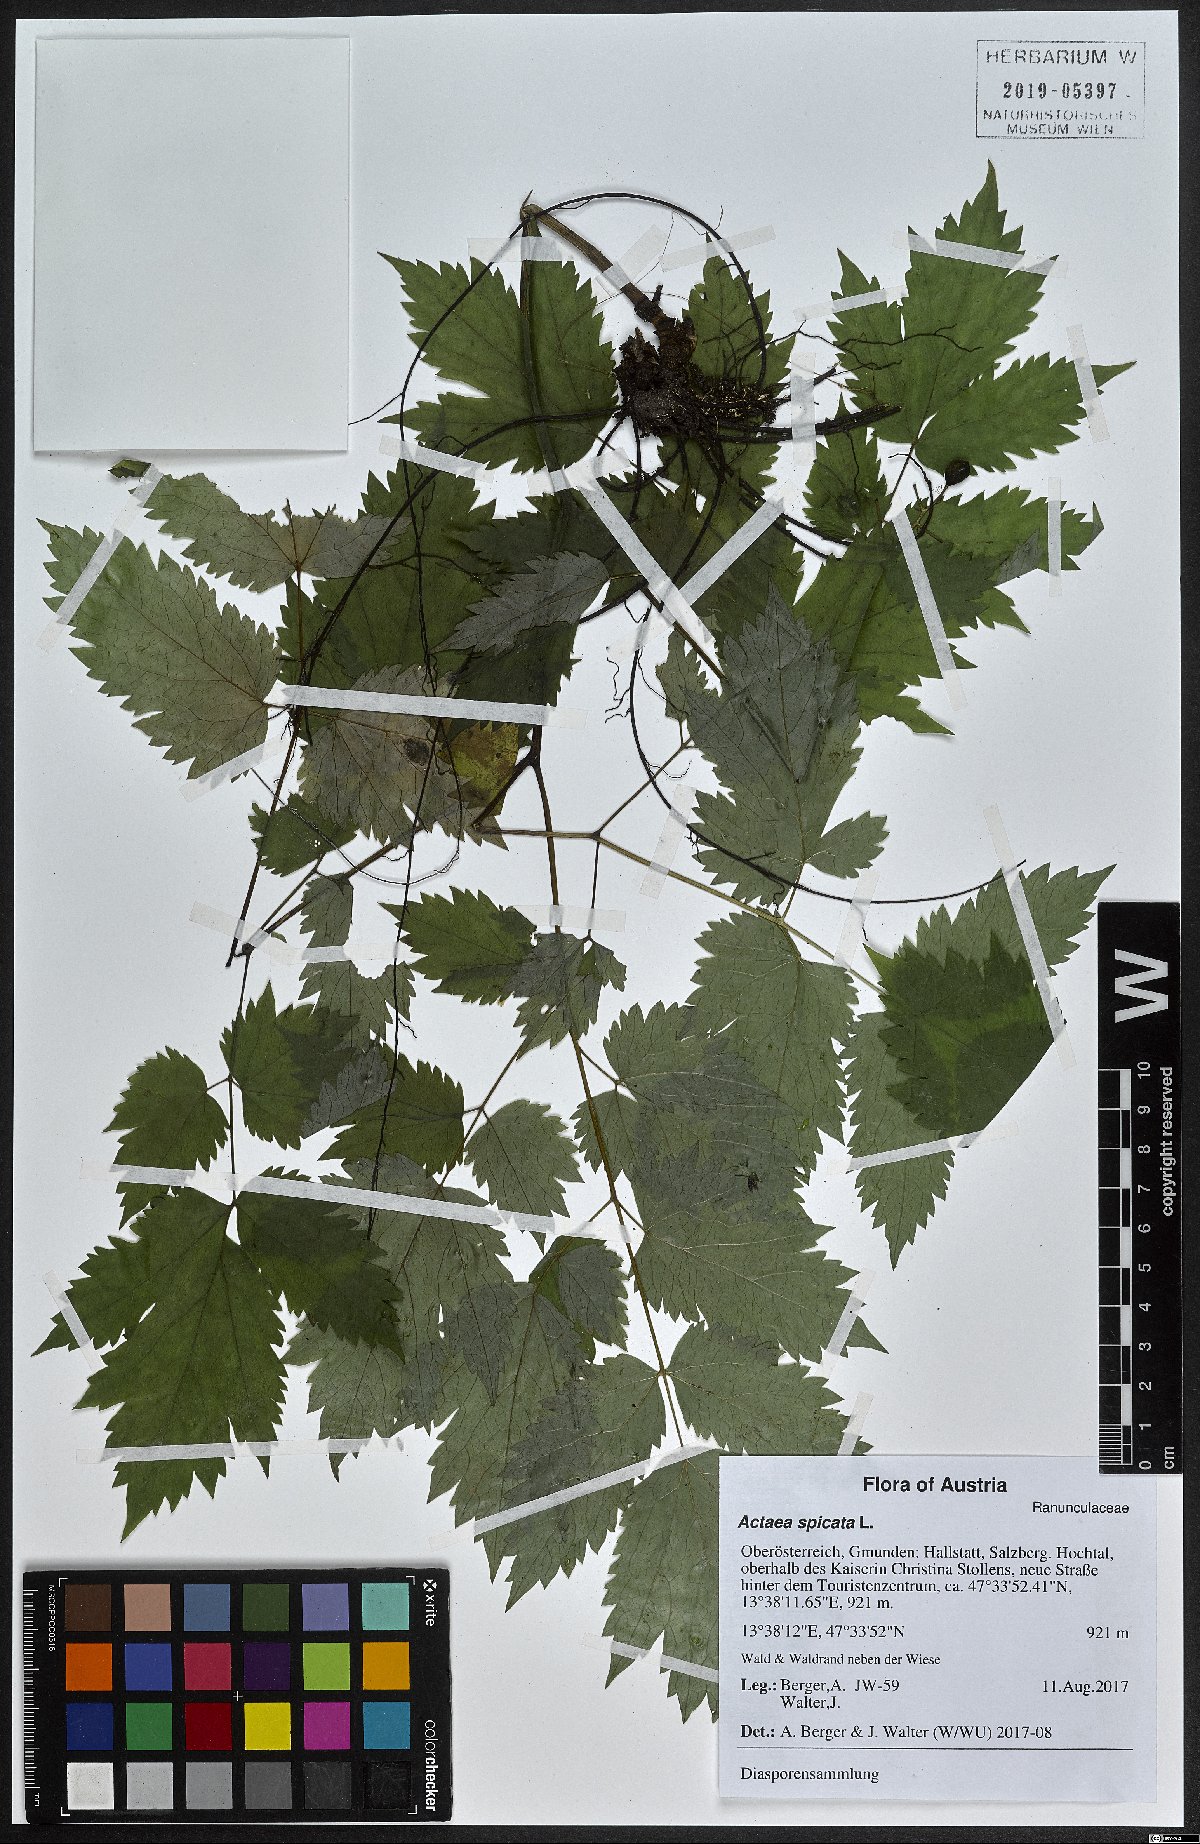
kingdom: Plantae
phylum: Tracheophyta
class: Magnoliopsida
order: Ranunculales
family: Ranunculaceae
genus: Actaea
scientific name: Actaea spicata
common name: Baneberry
